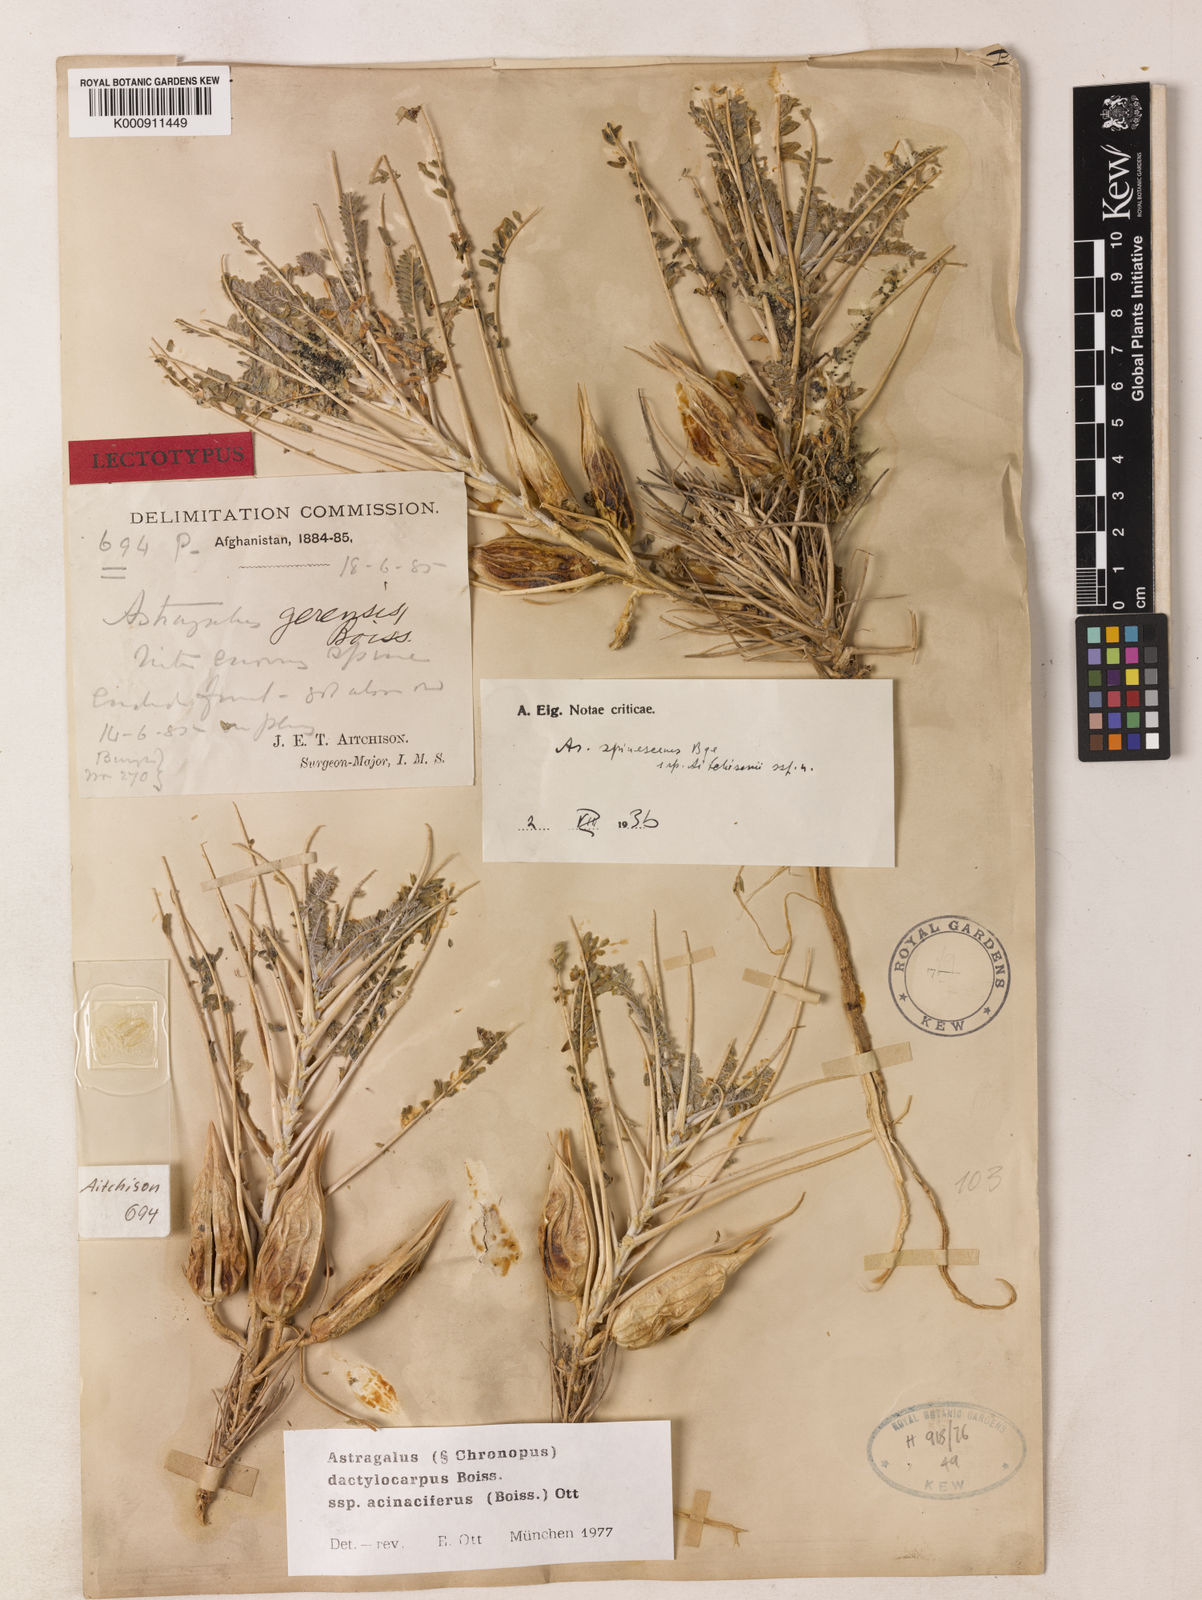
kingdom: Plantae
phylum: Tracheophyta
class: Magnoliopsida
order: Fabales
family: Fabaceae
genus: Astragalus
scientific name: Astragalus dactylocarpus
